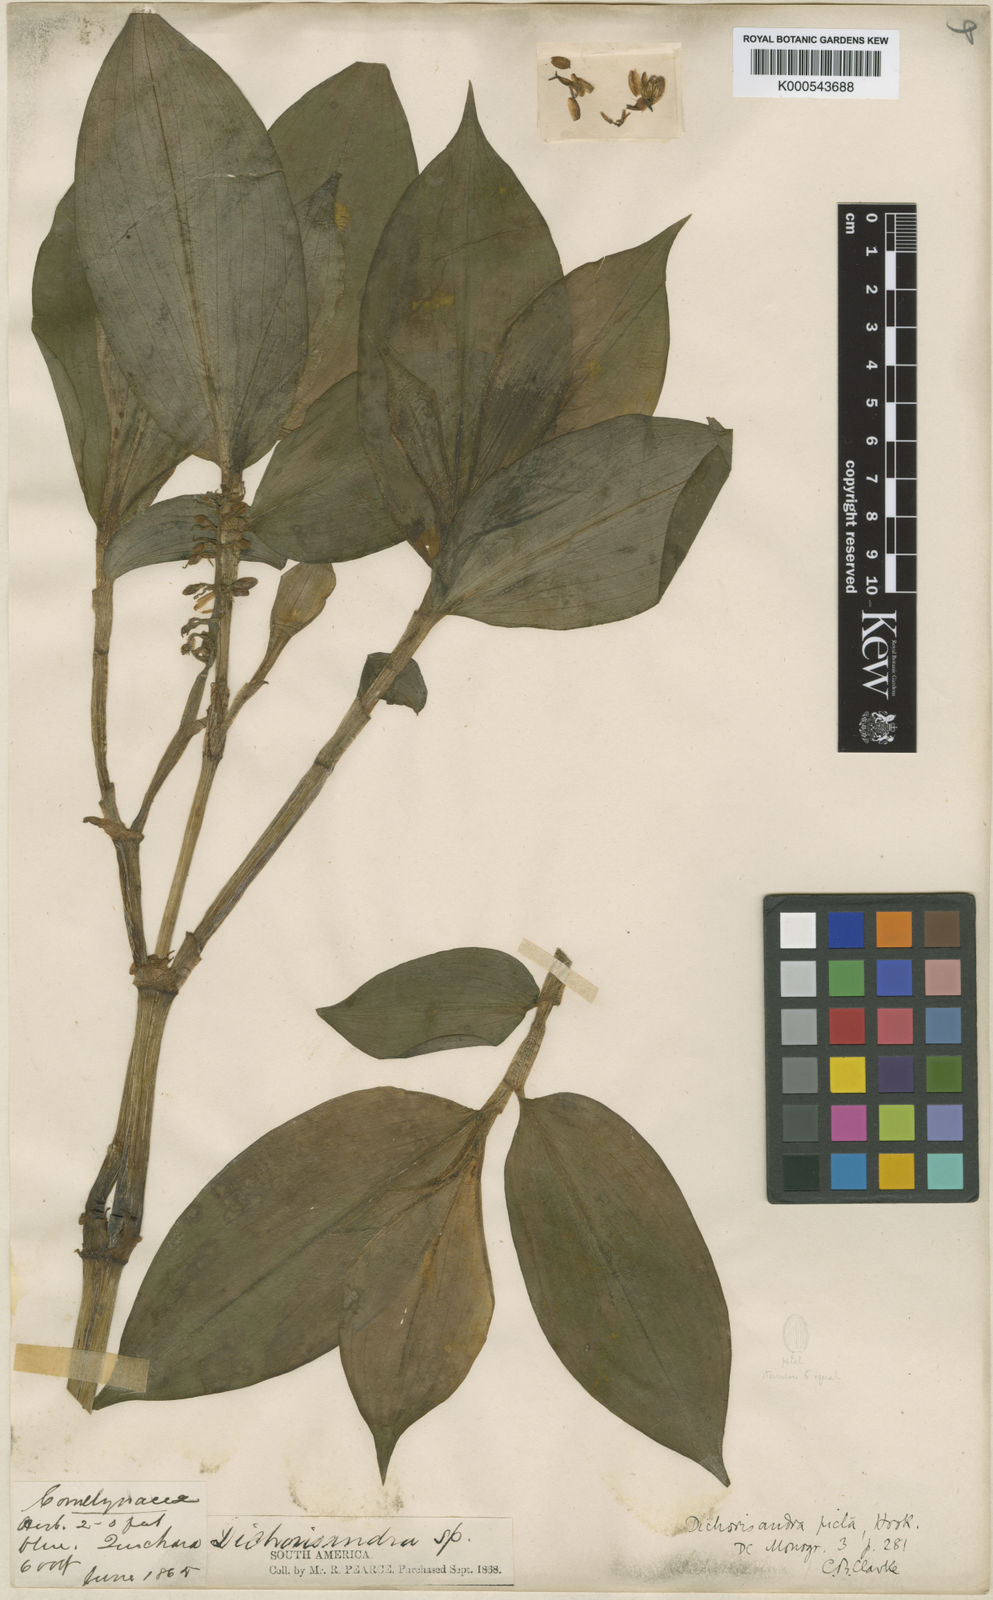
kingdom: Plantae
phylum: Tracheophyta
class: Liliopsida
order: Commelinales
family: Commelinaceae
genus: Dichorisandra
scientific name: Dichorisandra
